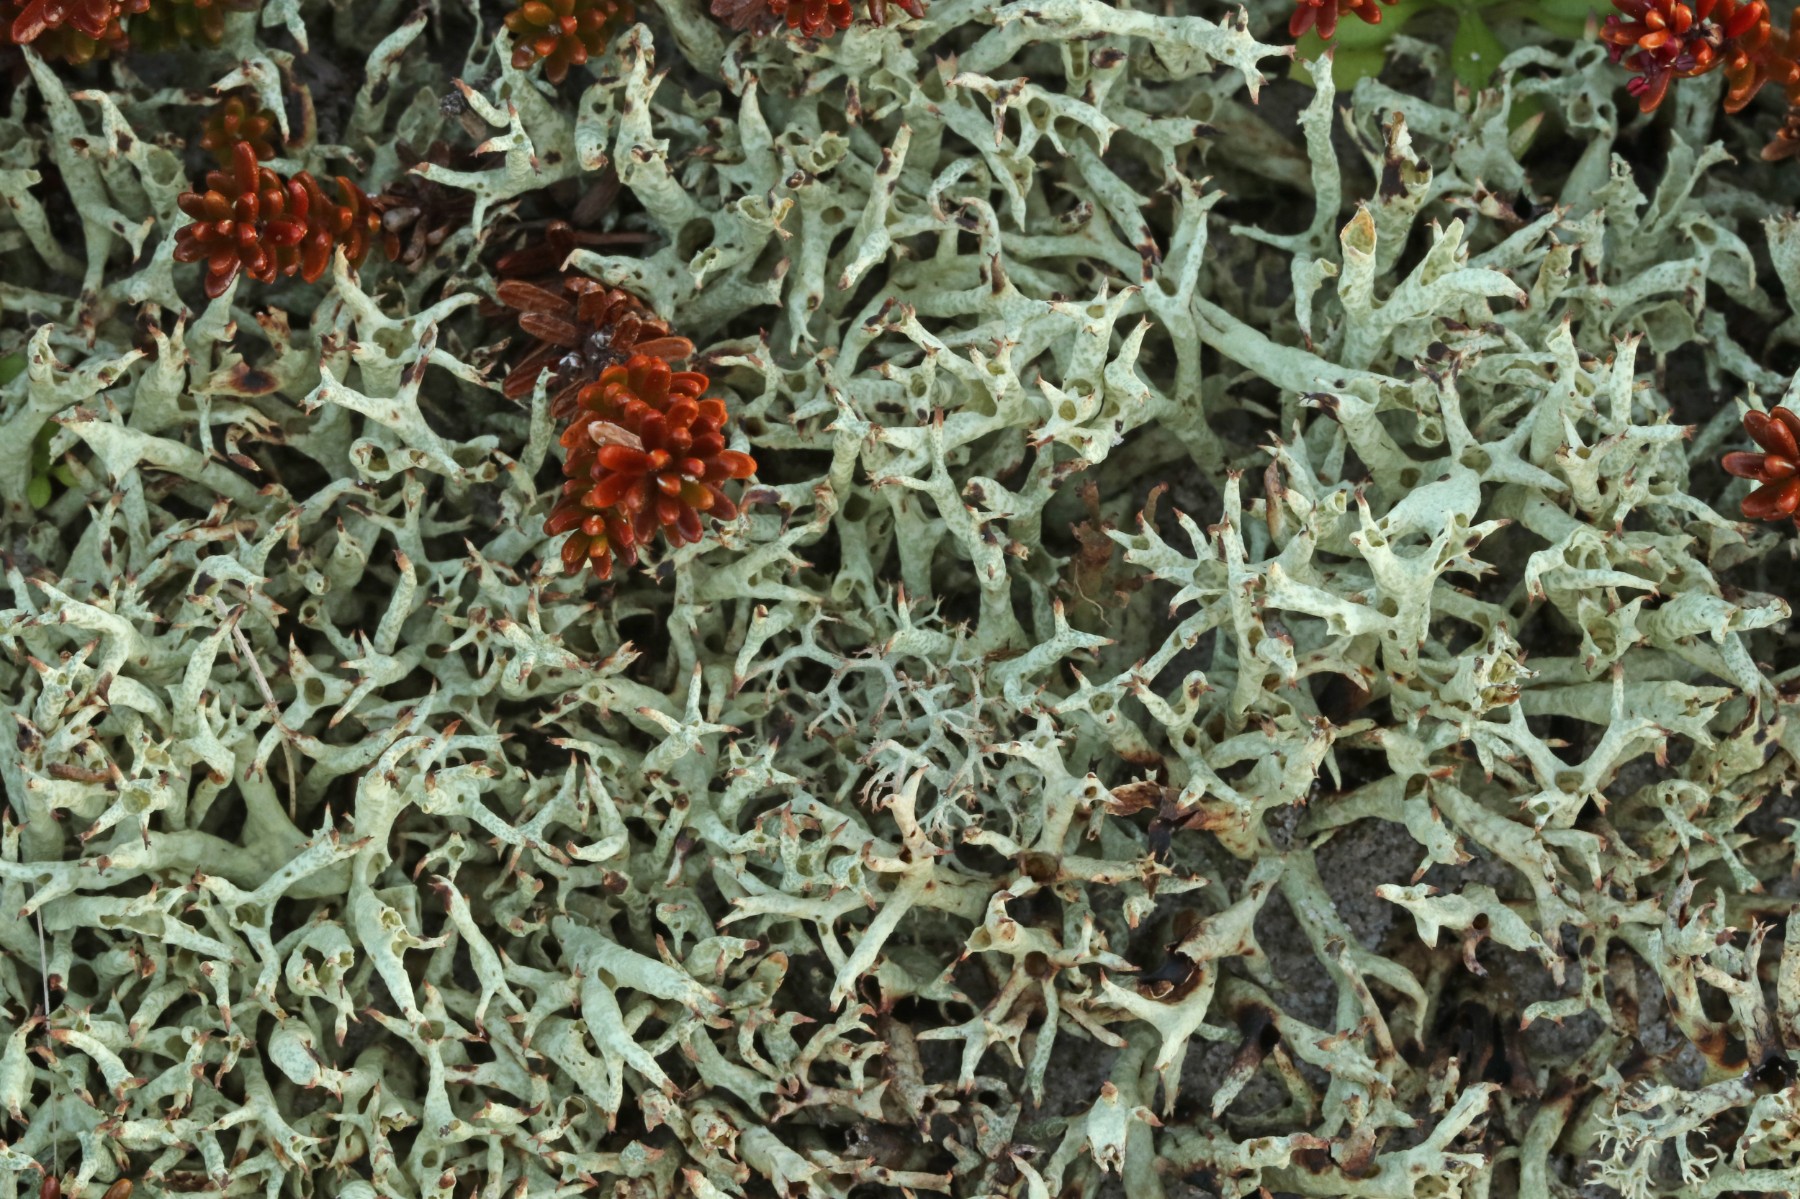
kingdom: Fungi
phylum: Ascomycota
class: Lecanoromycetes
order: Lecanorales
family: Cladoniaceae
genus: Cladonia
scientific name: Cladonia uncialis
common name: pigget bægerlav
